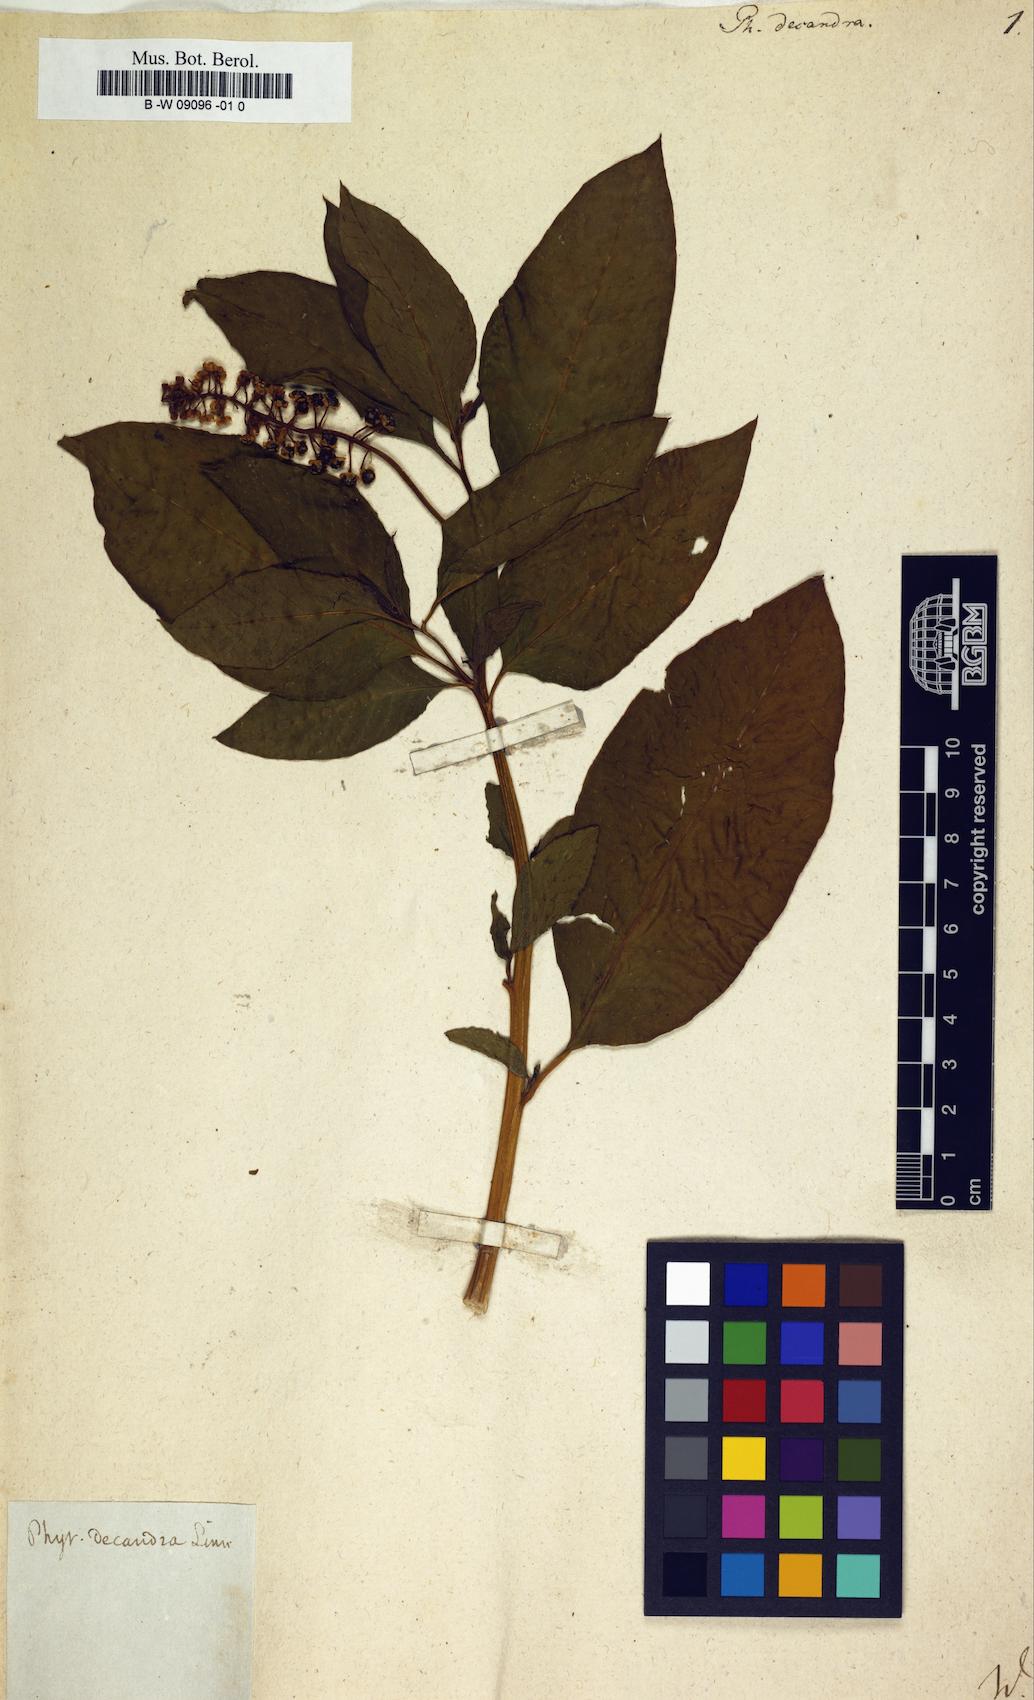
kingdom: Plantae
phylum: Tracheophyta
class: Magnoliopsida
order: Caryophyllales
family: Phytolaccaceae
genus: Phytolacca
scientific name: Phytolacca americana
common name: American pokeweed
